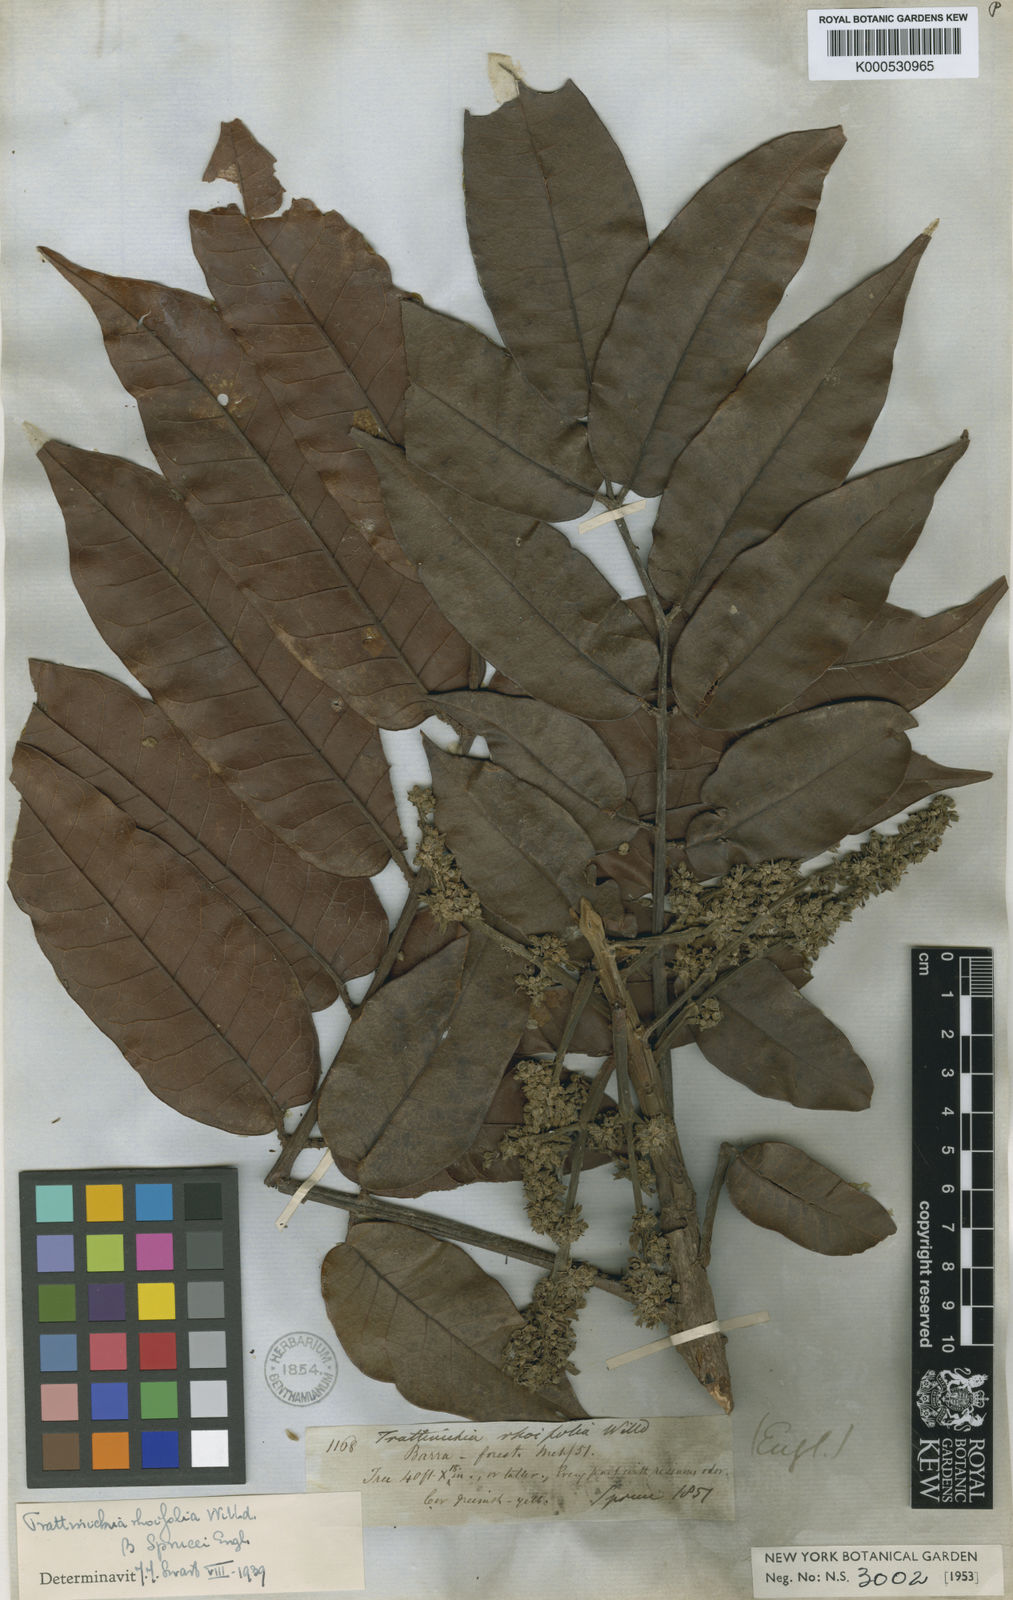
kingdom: Plantae
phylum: Tracheophyta
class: Magnoliopsida
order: Sapindales
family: Burseraceae
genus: Trattinnickia
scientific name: Trattinnickia rhoifolia
